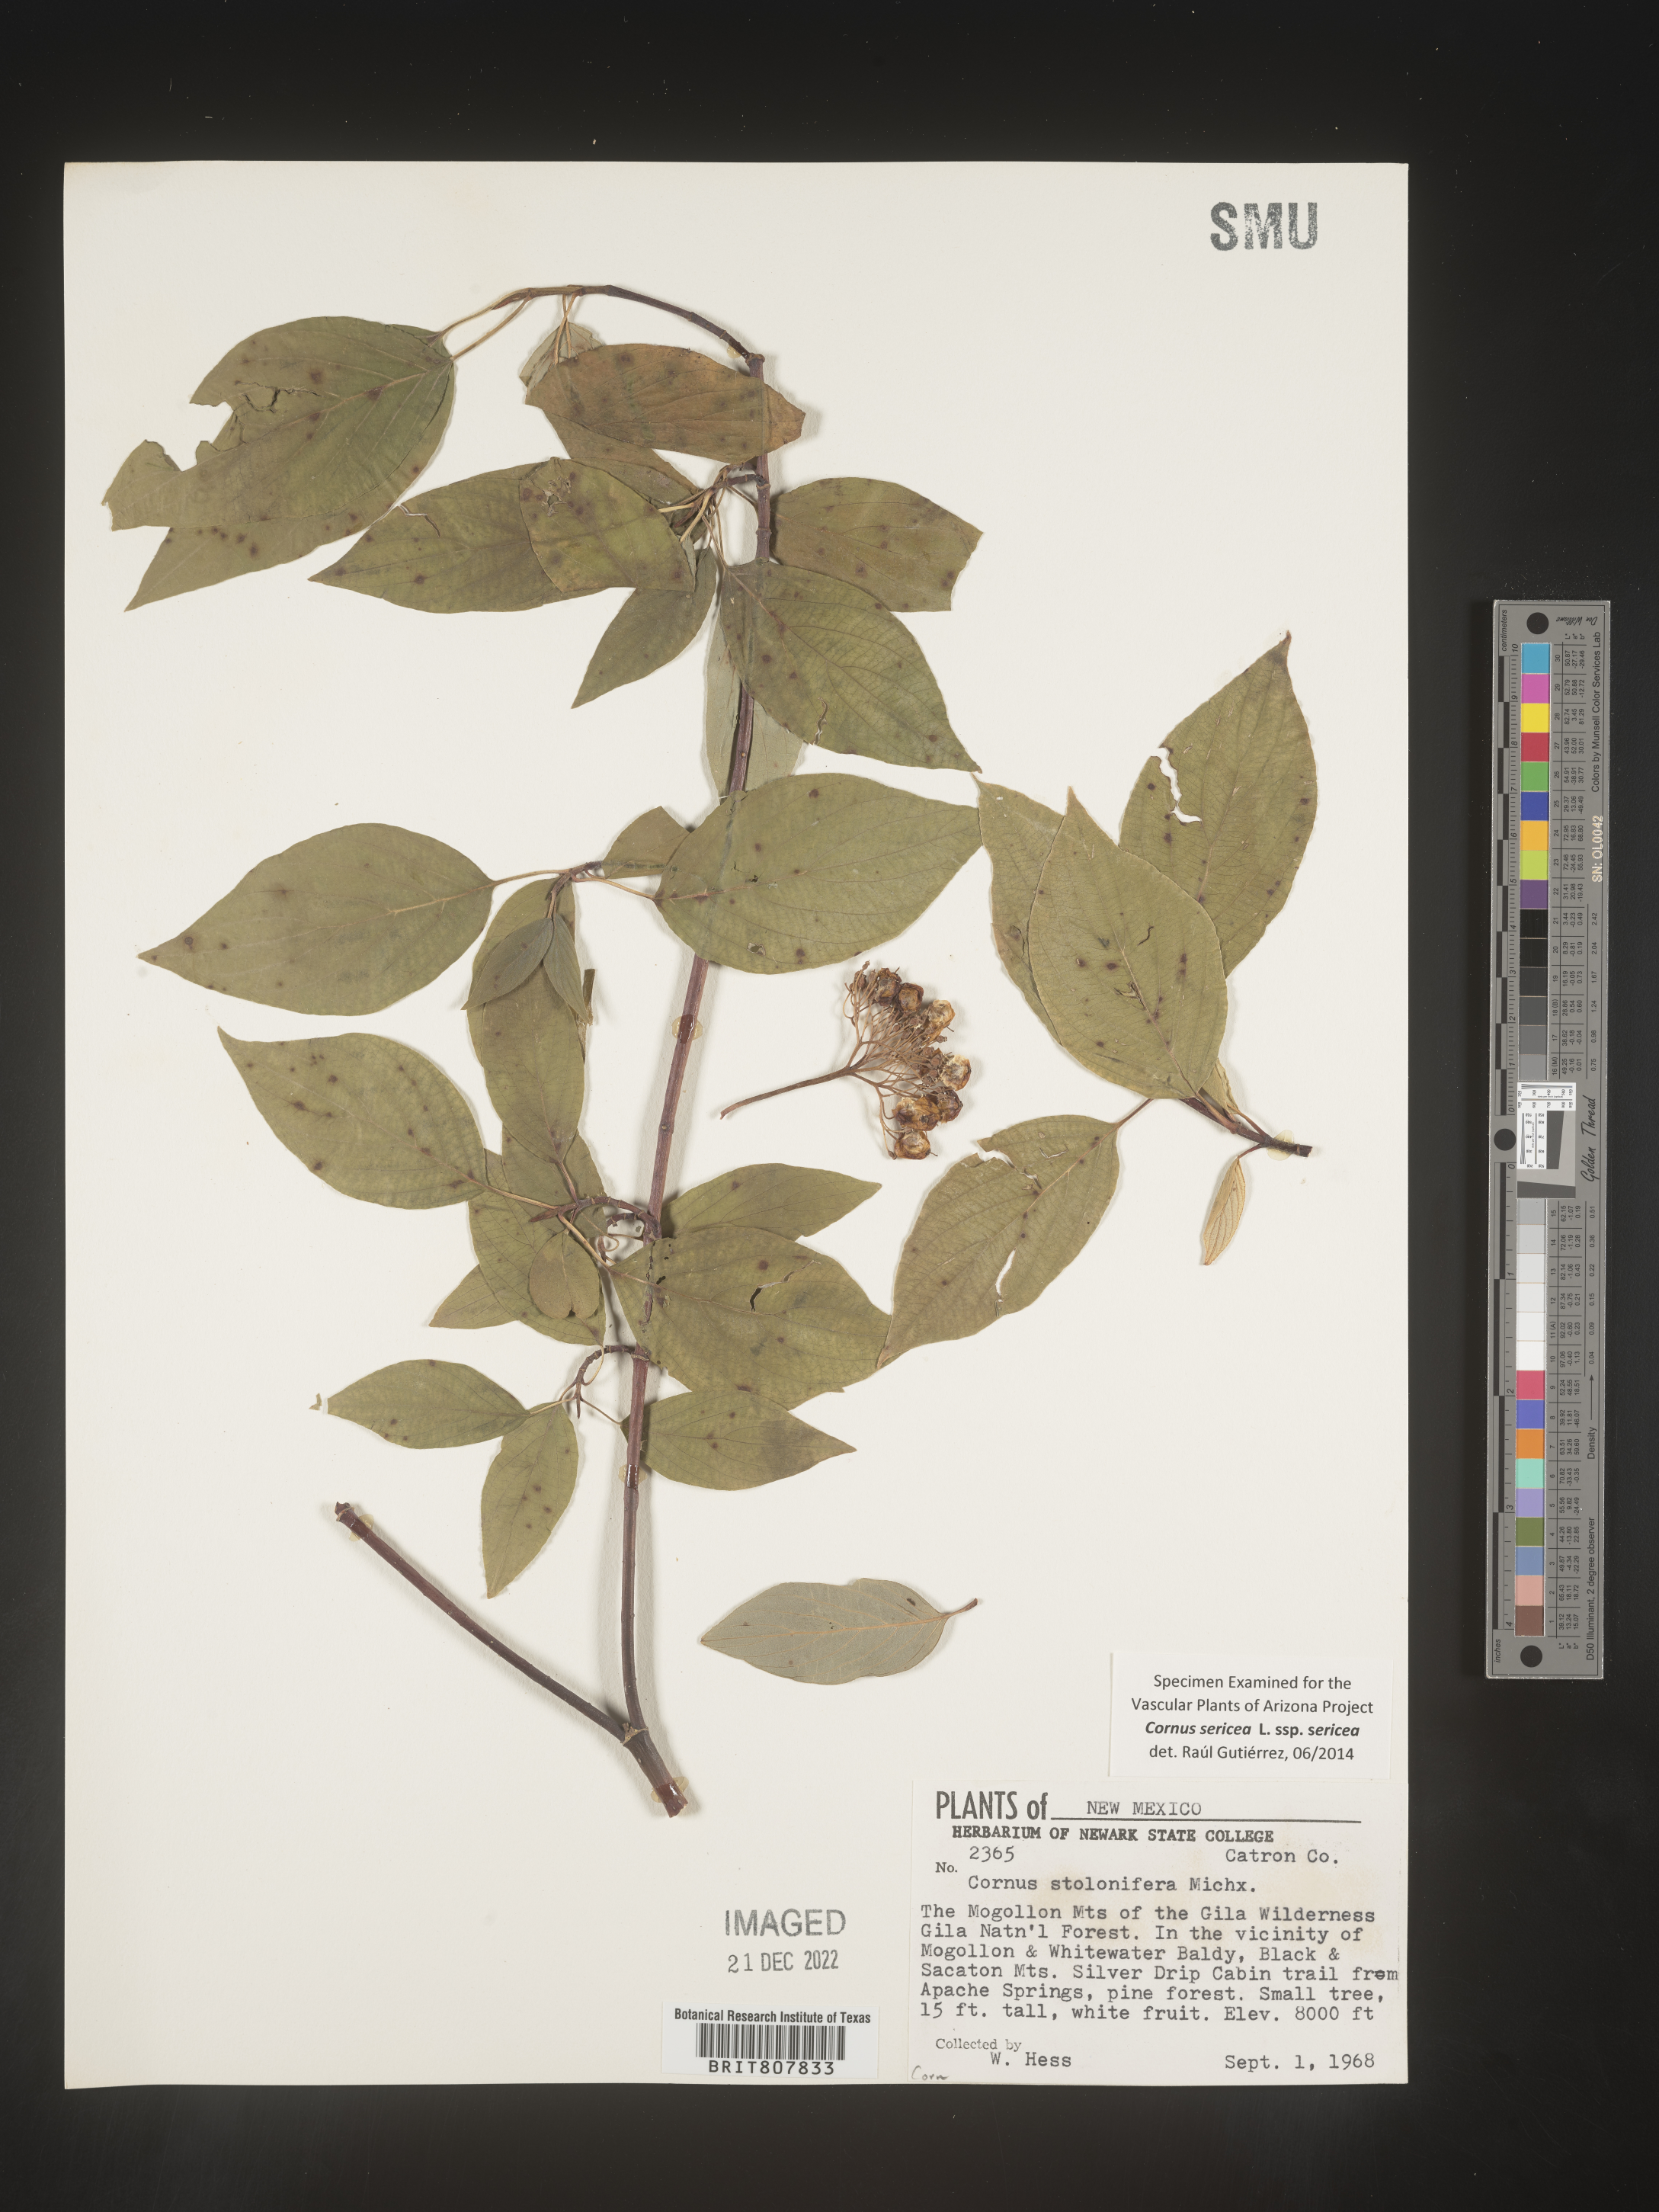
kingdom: Plantae
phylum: Tracheophyta
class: Magnoliopsida
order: Cornales
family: Cornaceae
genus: Cornus
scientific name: Cornus
